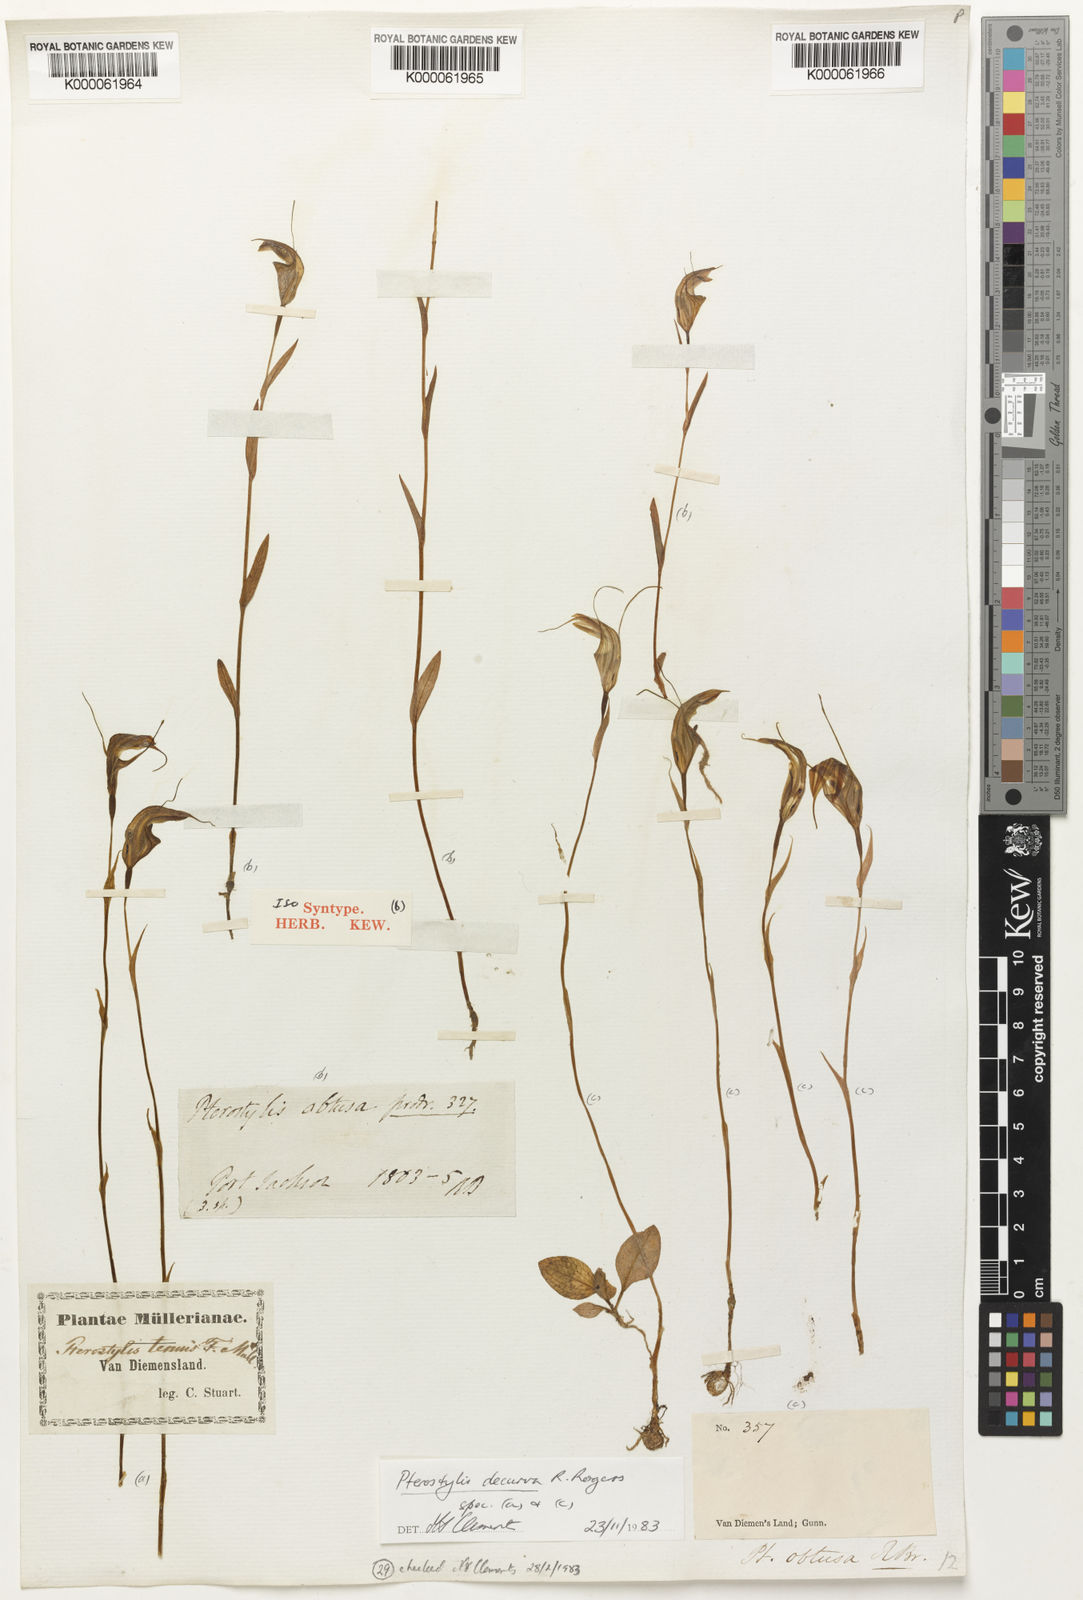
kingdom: Plantae
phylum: Tracheophyta
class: Liliopsida
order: Asparagales
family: Orchidaceae
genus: Pterostylis
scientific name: Pterostylis obtusa
